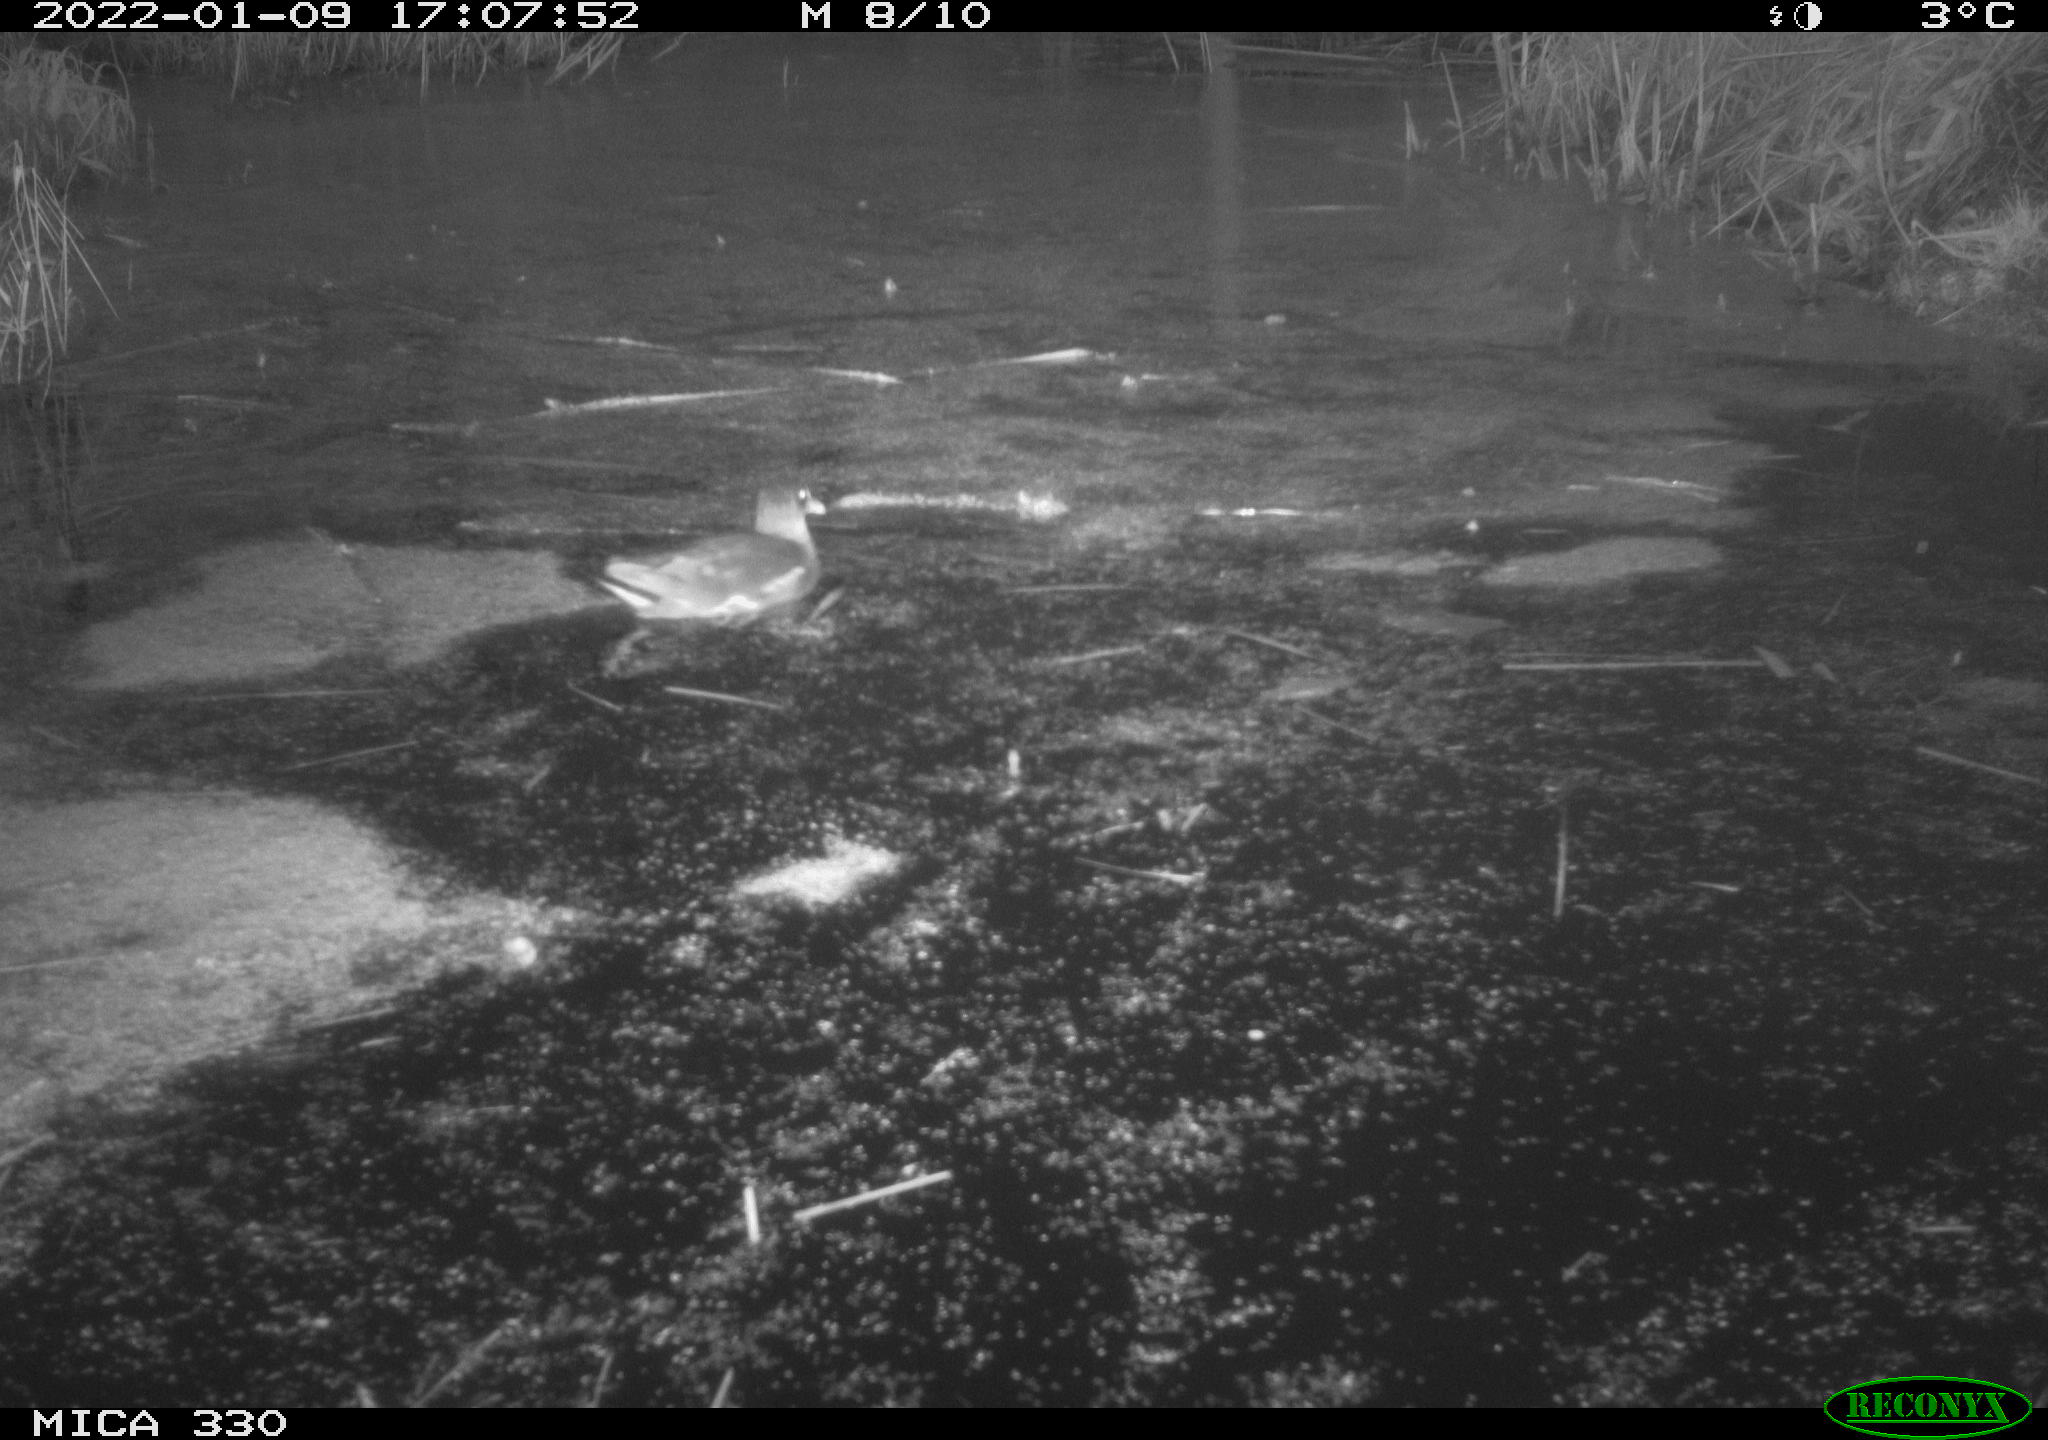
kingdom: Animalia
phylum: Chordata
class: Aves
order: Gruiformes
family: Rallidae
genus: Gallinula
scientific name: Gallinula chloropus
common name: Common moorhen
